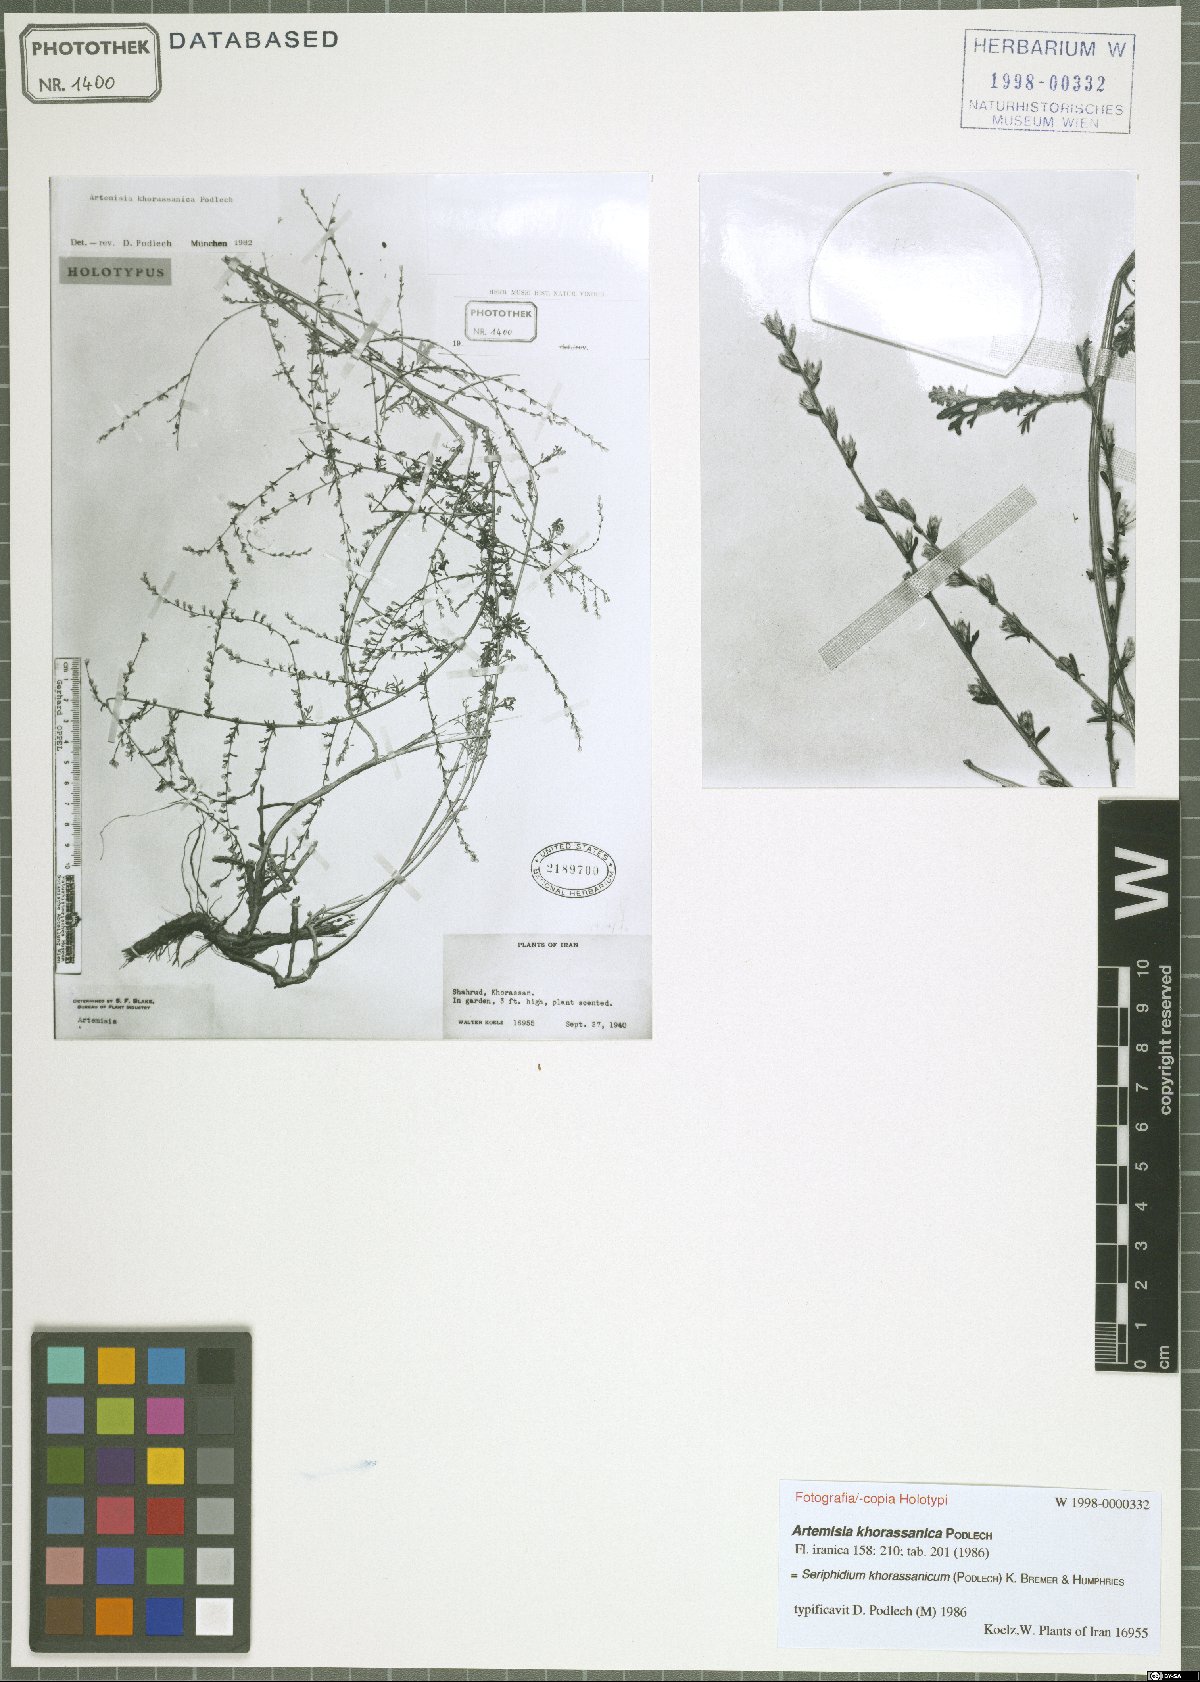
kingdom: Plantae
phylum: Tracheophyta
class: Magnoliopsida
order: Asterales
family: Asteraceae
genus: Artemisia
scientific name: Artemisia oliveriana
